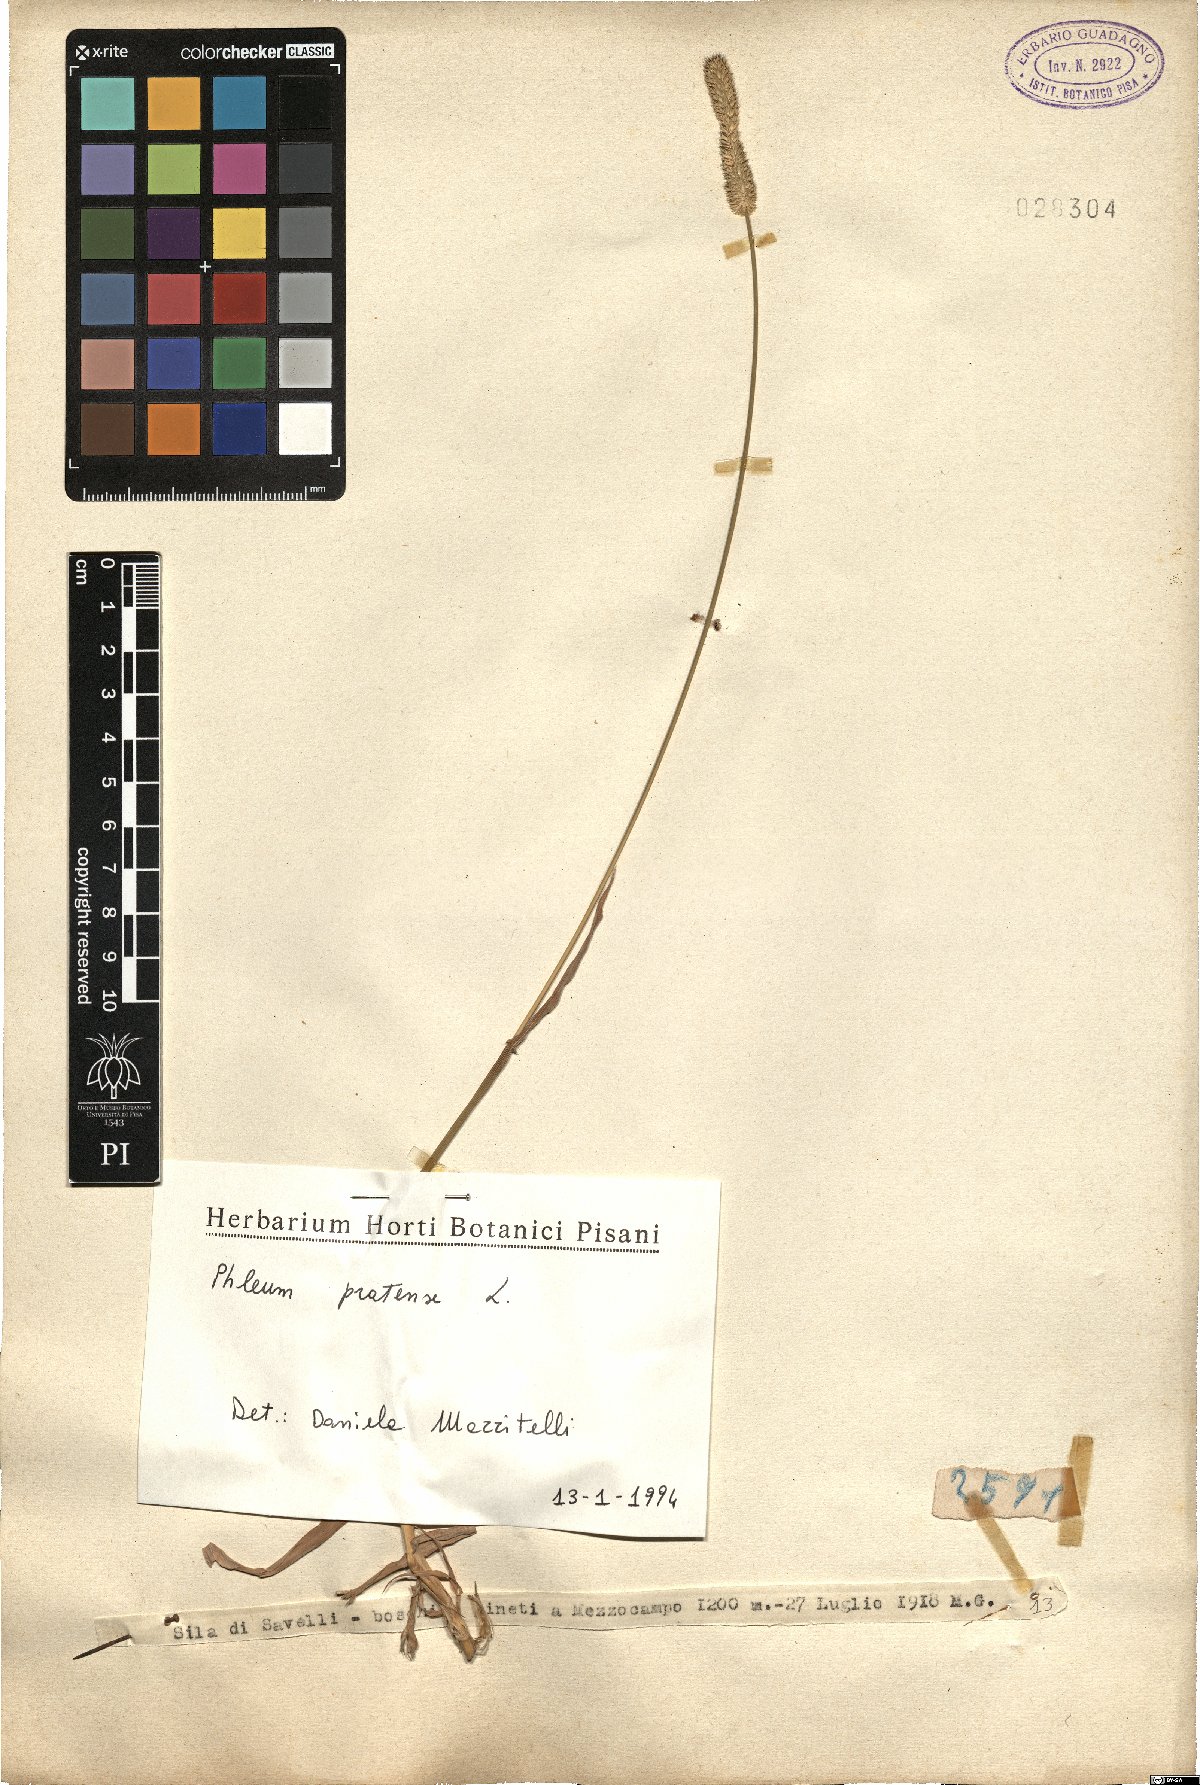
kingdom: Plantae
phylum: Tracheophyta
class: Liliopsida
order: Poales
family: Poaceae
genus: Phleum
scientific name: Phleum pratense
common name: Timothy grass
